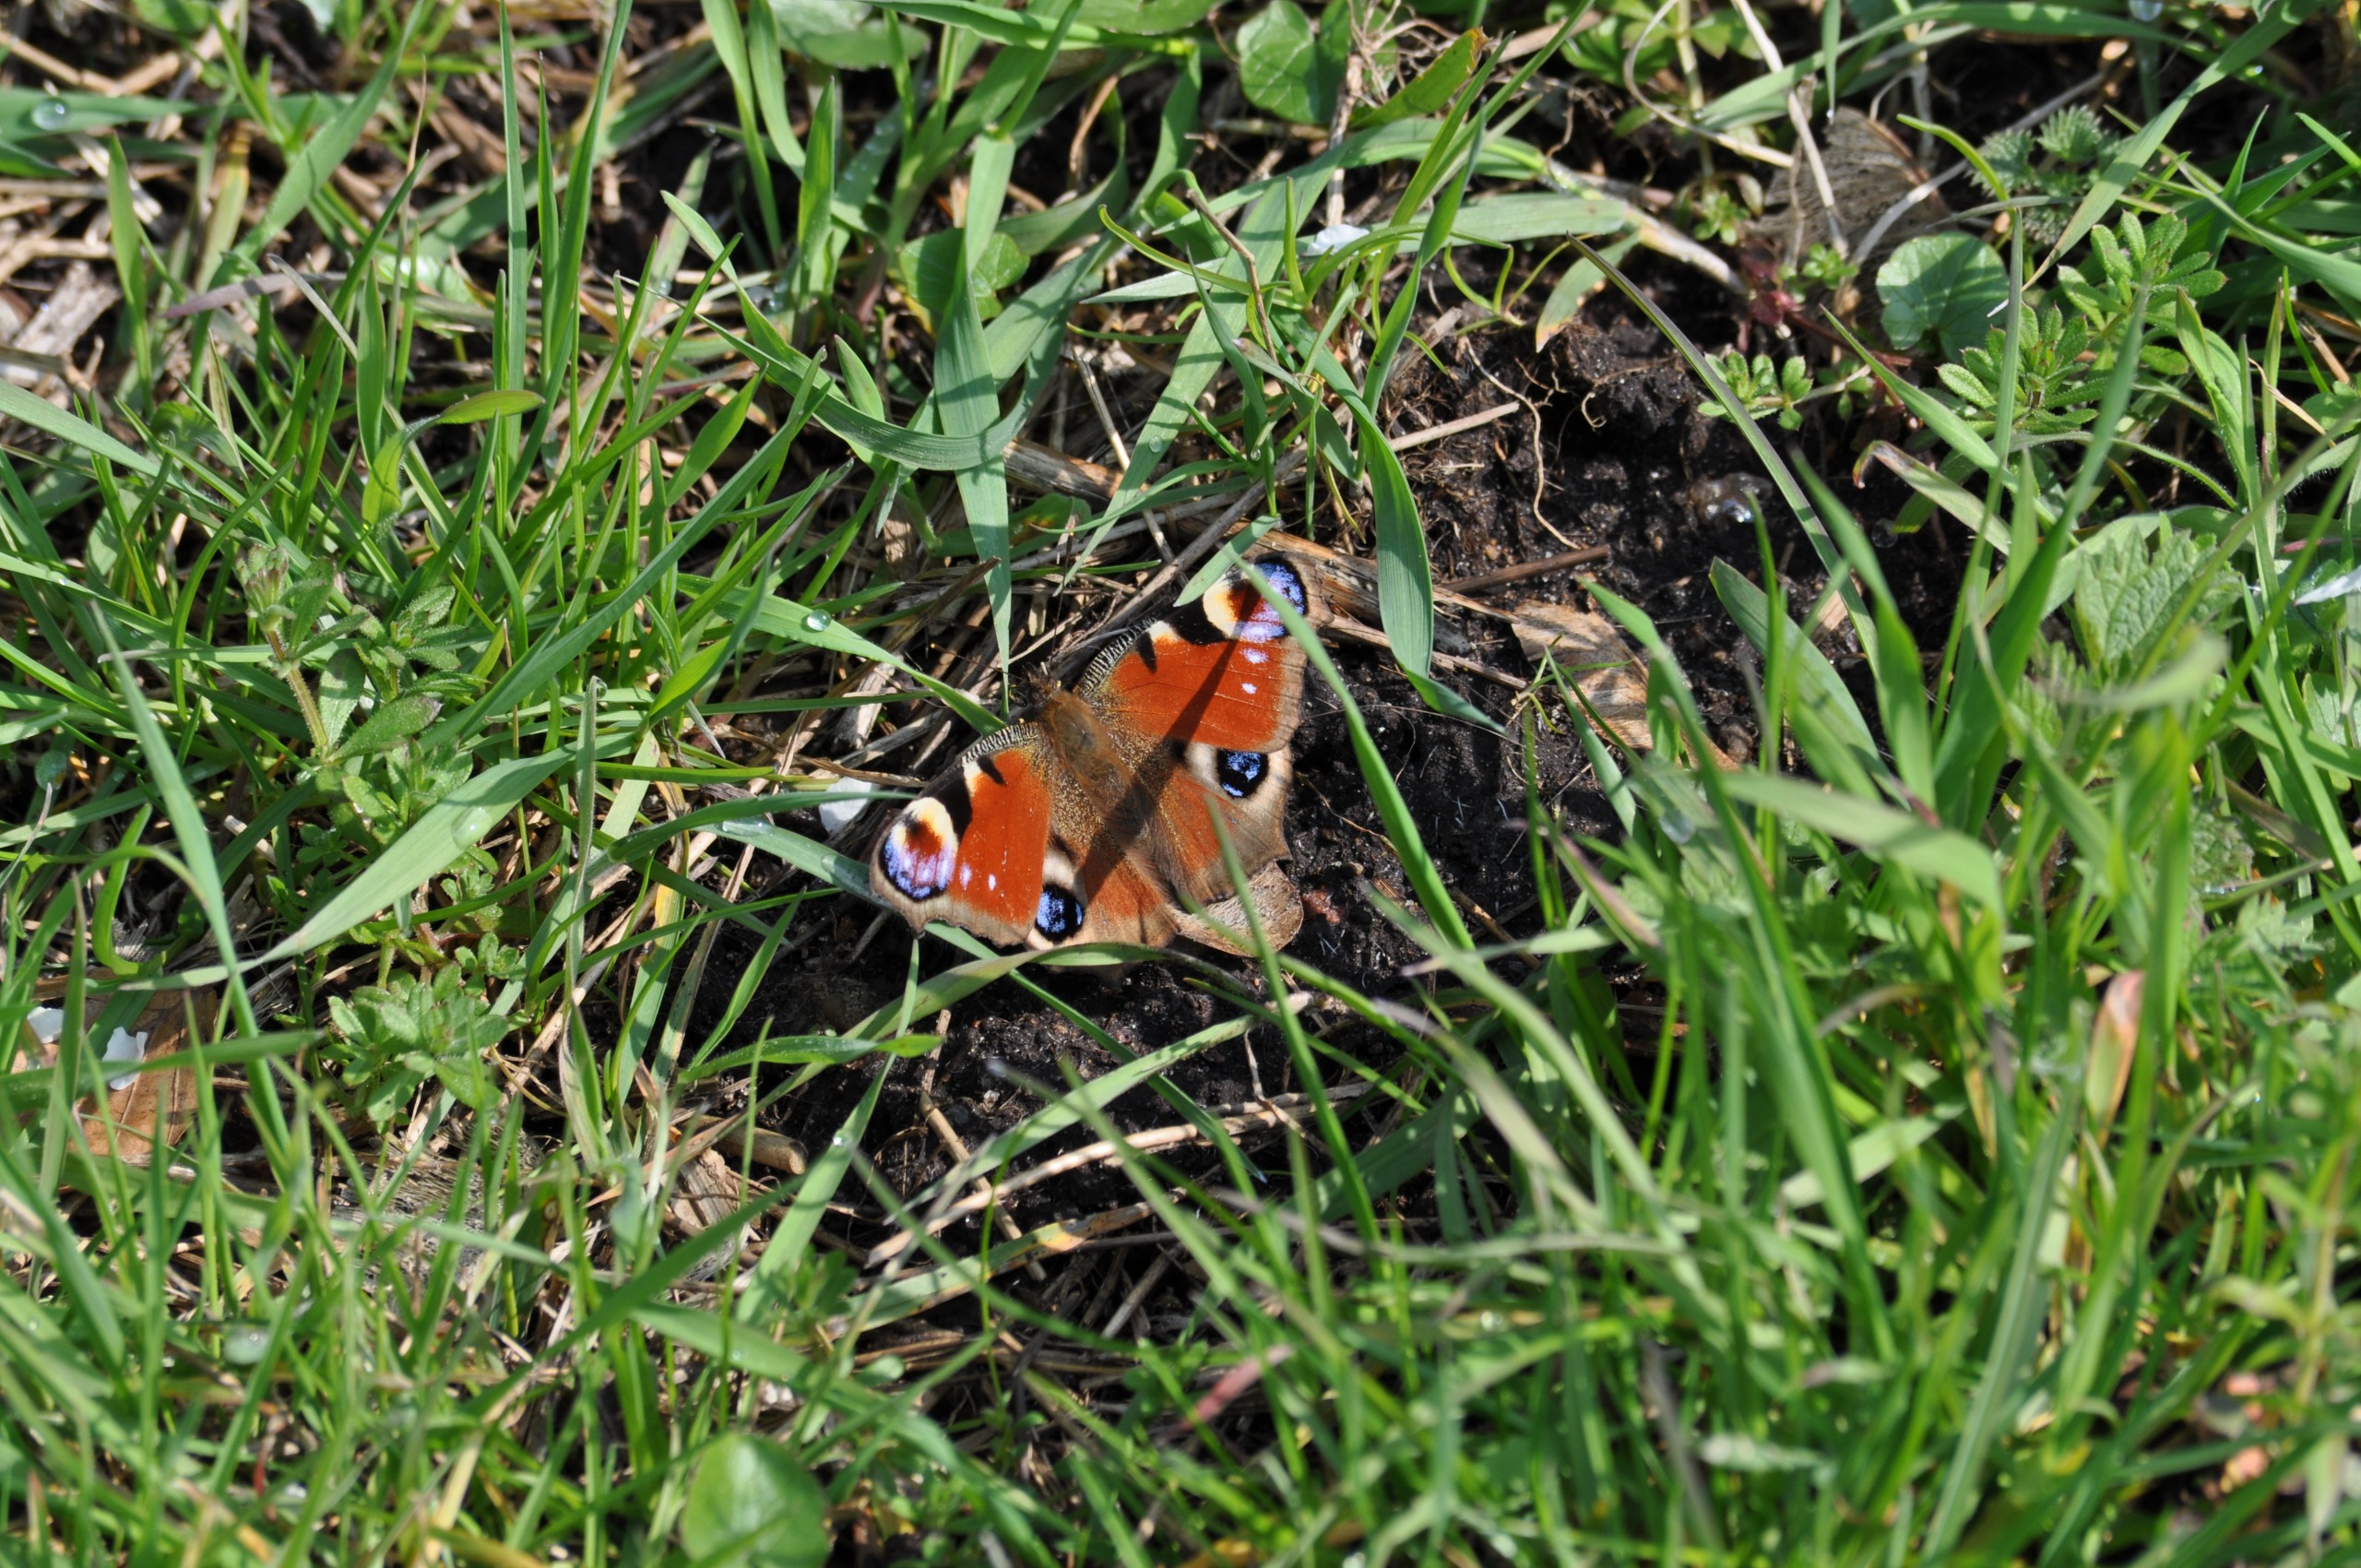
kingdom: Animalia
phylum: Arthropoda
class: Insecta
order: Lepidoptera
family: Nymphalidae
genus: Aglais
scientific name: Aglais io
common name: Dagpåfugleøje
